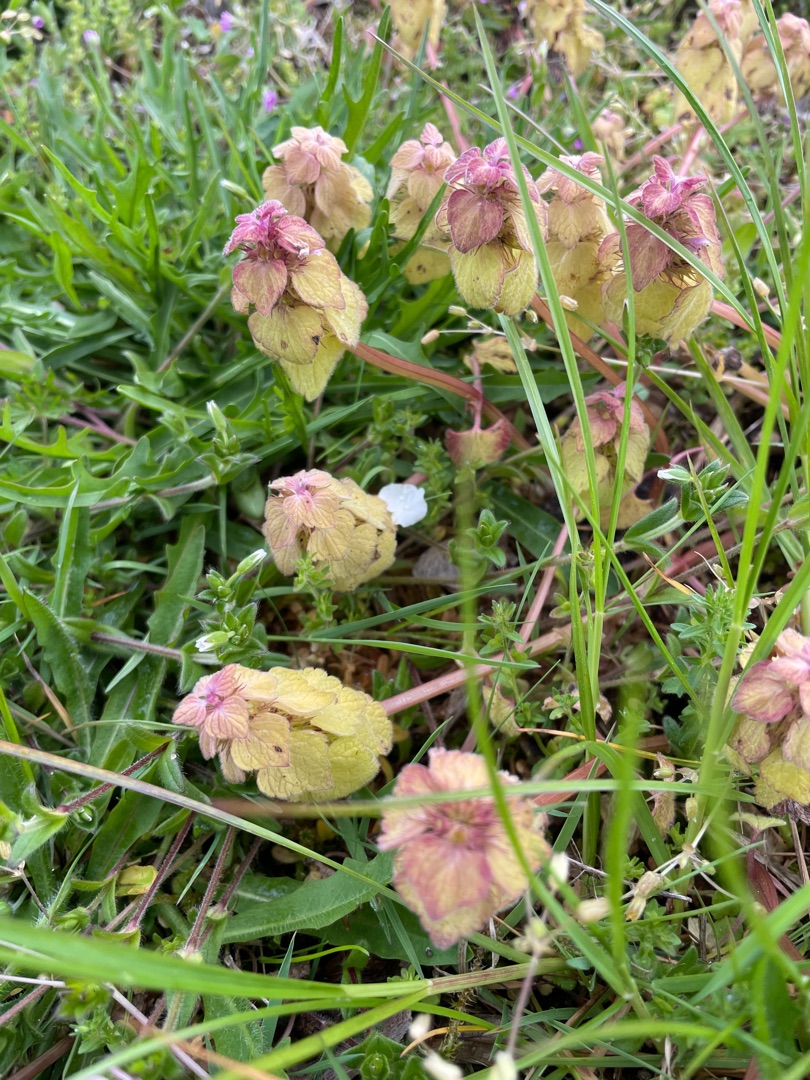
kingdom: Plantae
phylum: Tracheophyta
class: Magnoliopsida
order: Lamiales
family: Lamiaceae
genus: Lamium
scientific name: Lamium purpureum
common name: Rød tvetand
